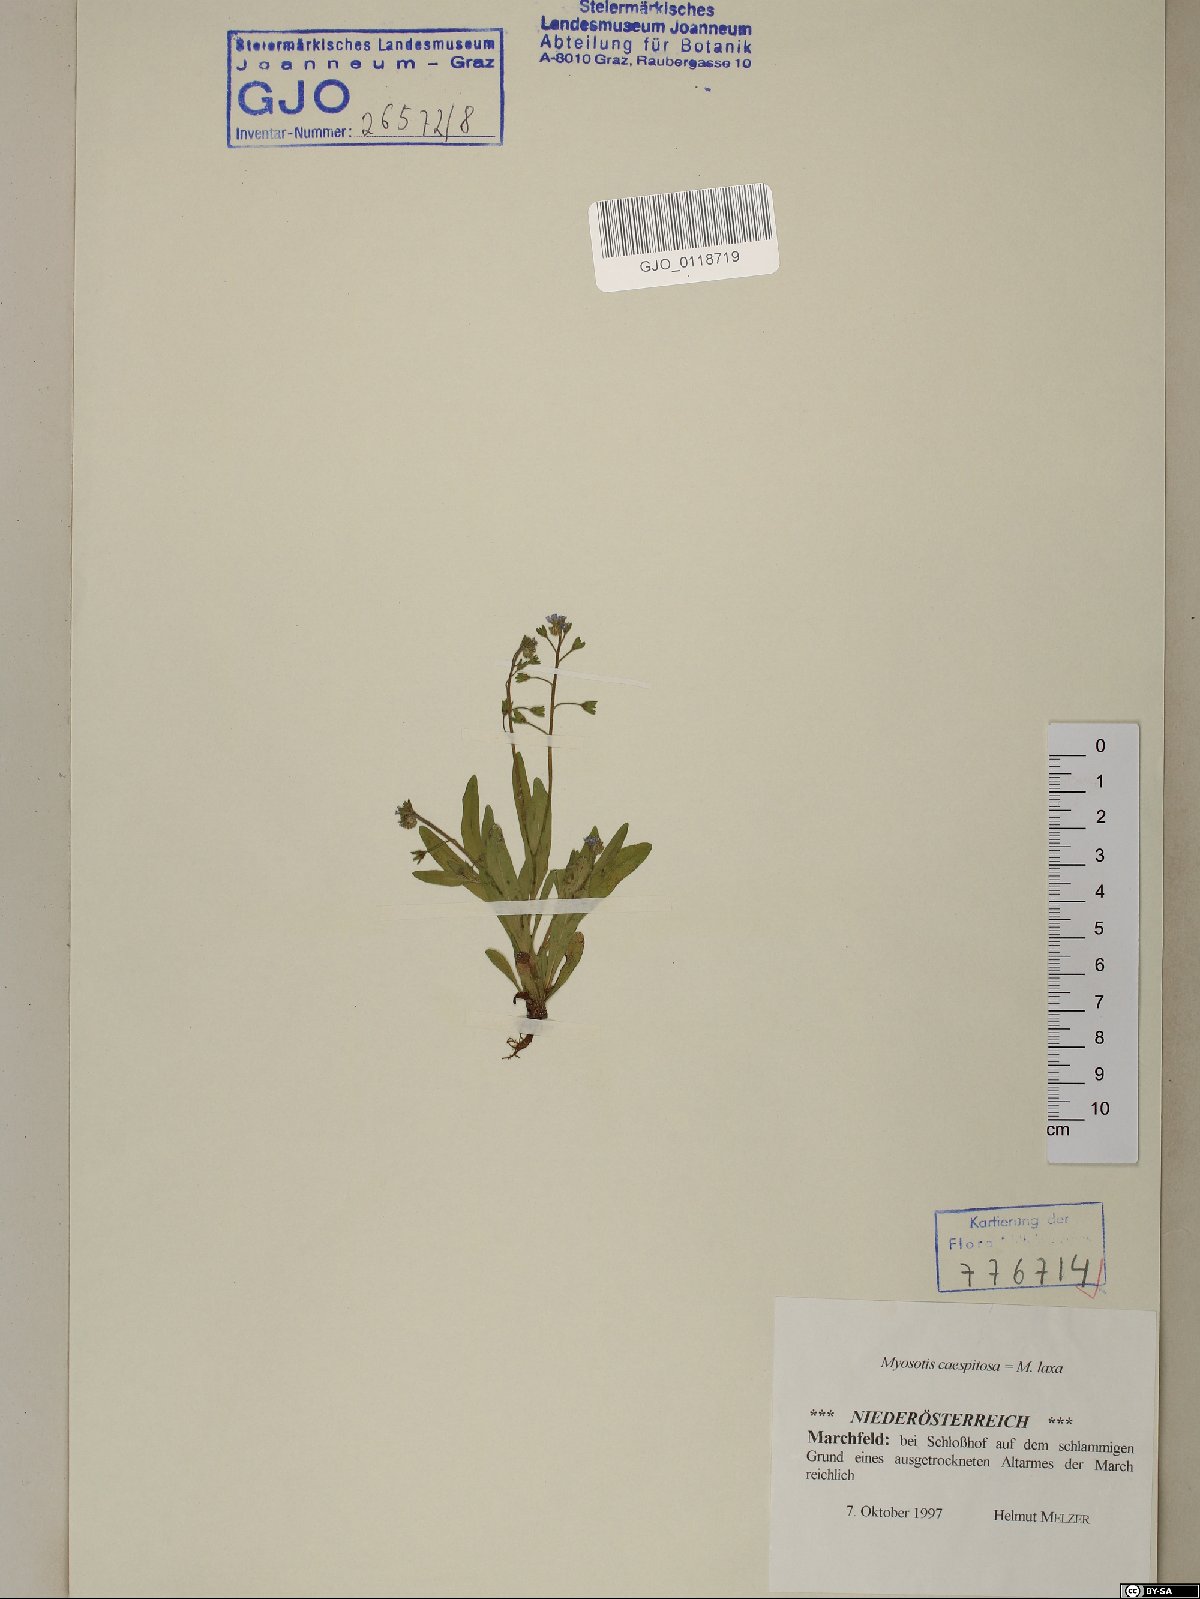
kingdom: Plantae
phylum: Tracheophyta
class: Magnoliopsida
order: Boraginales
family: Boraginaceae
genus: Myosotis
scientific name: Myosotis laxa
